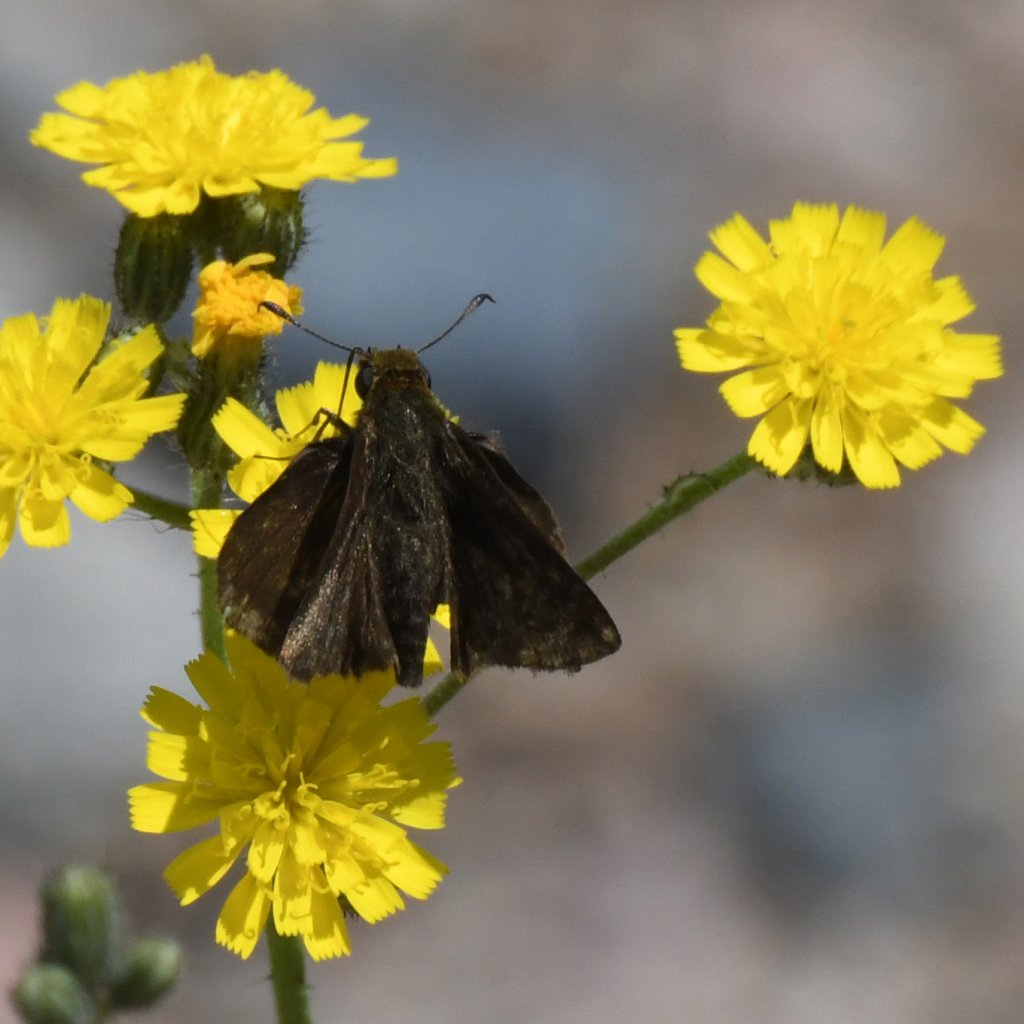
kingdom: Animalia
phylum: Arthropoda
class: Insecta
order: Lepidoptera
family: Hesperiidae
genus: Euphyes
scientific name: Euphyes vestris
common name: Dun Skipper
